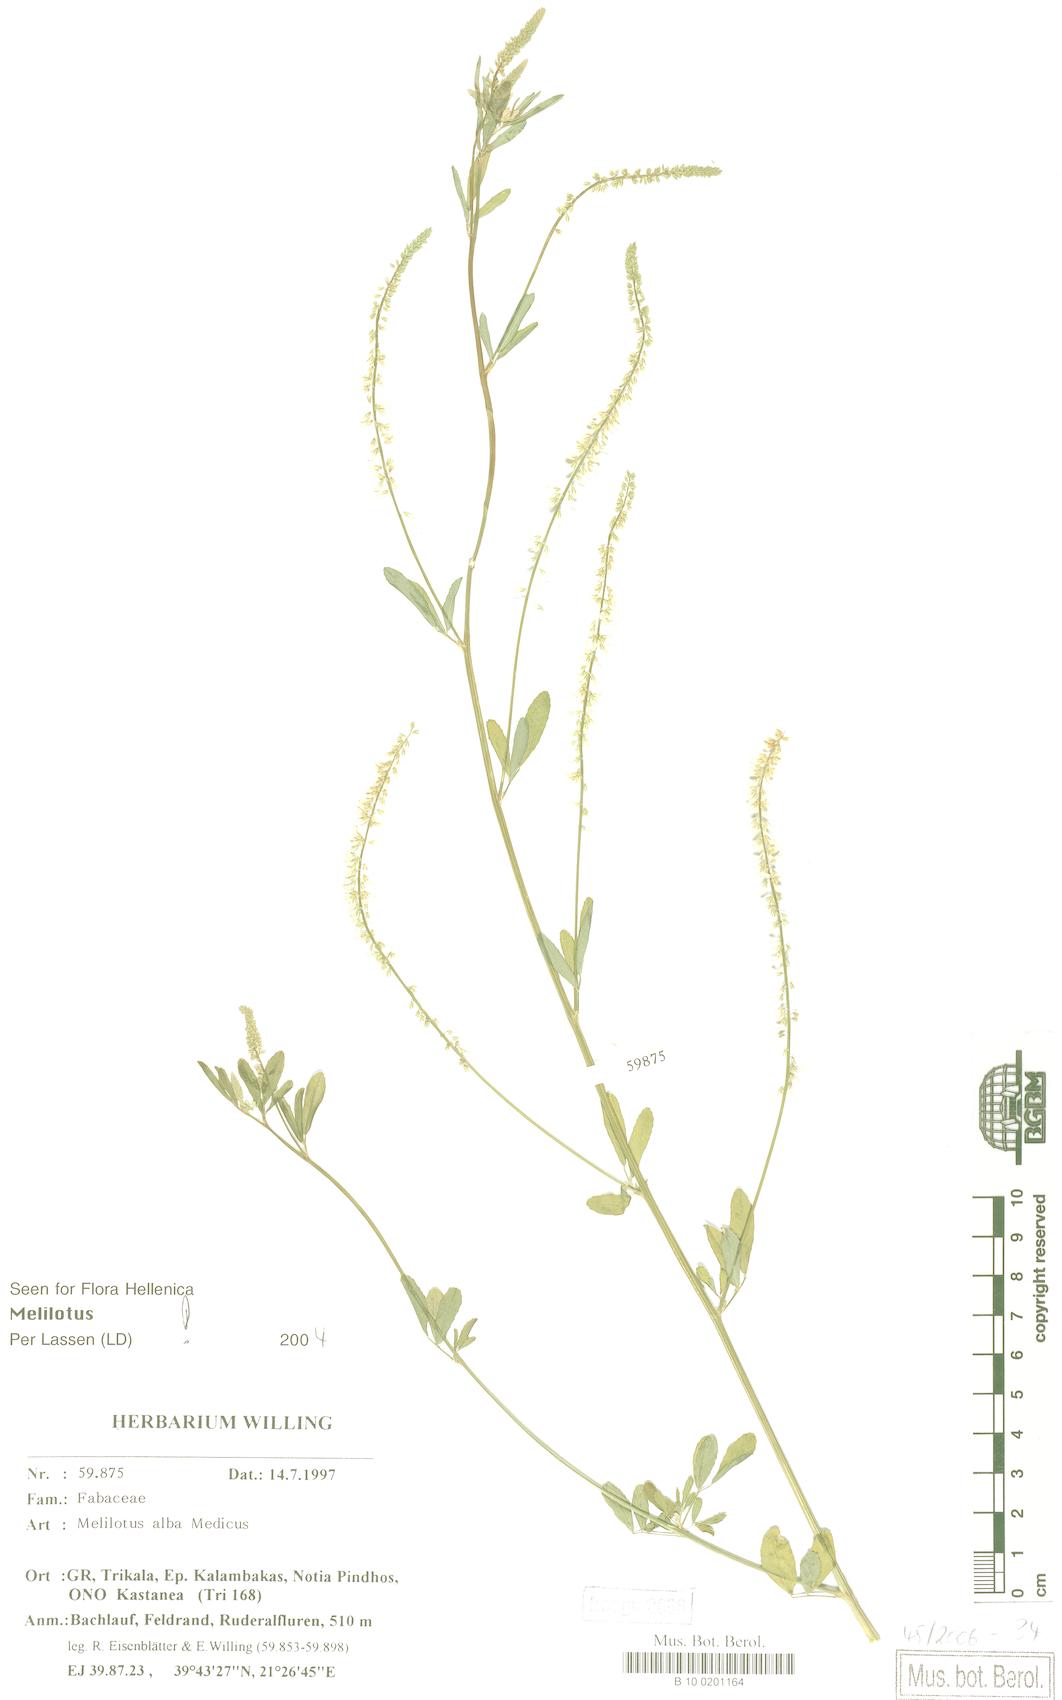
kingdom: Plantae
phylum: Tracheophyta
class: Magnoliopsida
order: Fabales
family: Fabaceae
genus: Melilotus
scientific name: Melilotus albus
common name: White melilot
